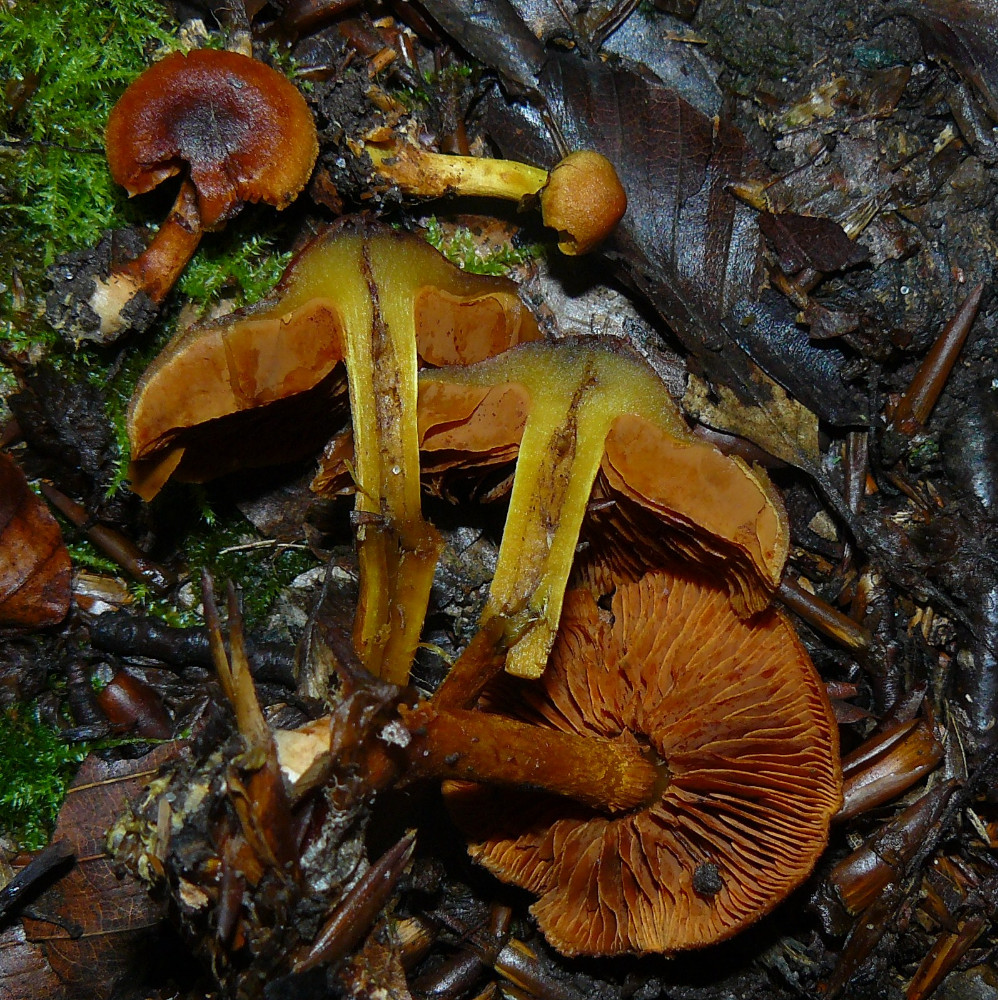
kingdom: Fungi
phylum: Basidiomycota
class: Agaricomycetes
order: Agaricales
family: Cortinariaceae
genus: Cortinarius
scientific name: Cortinarius malicorius
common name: grønkødet slørhat
